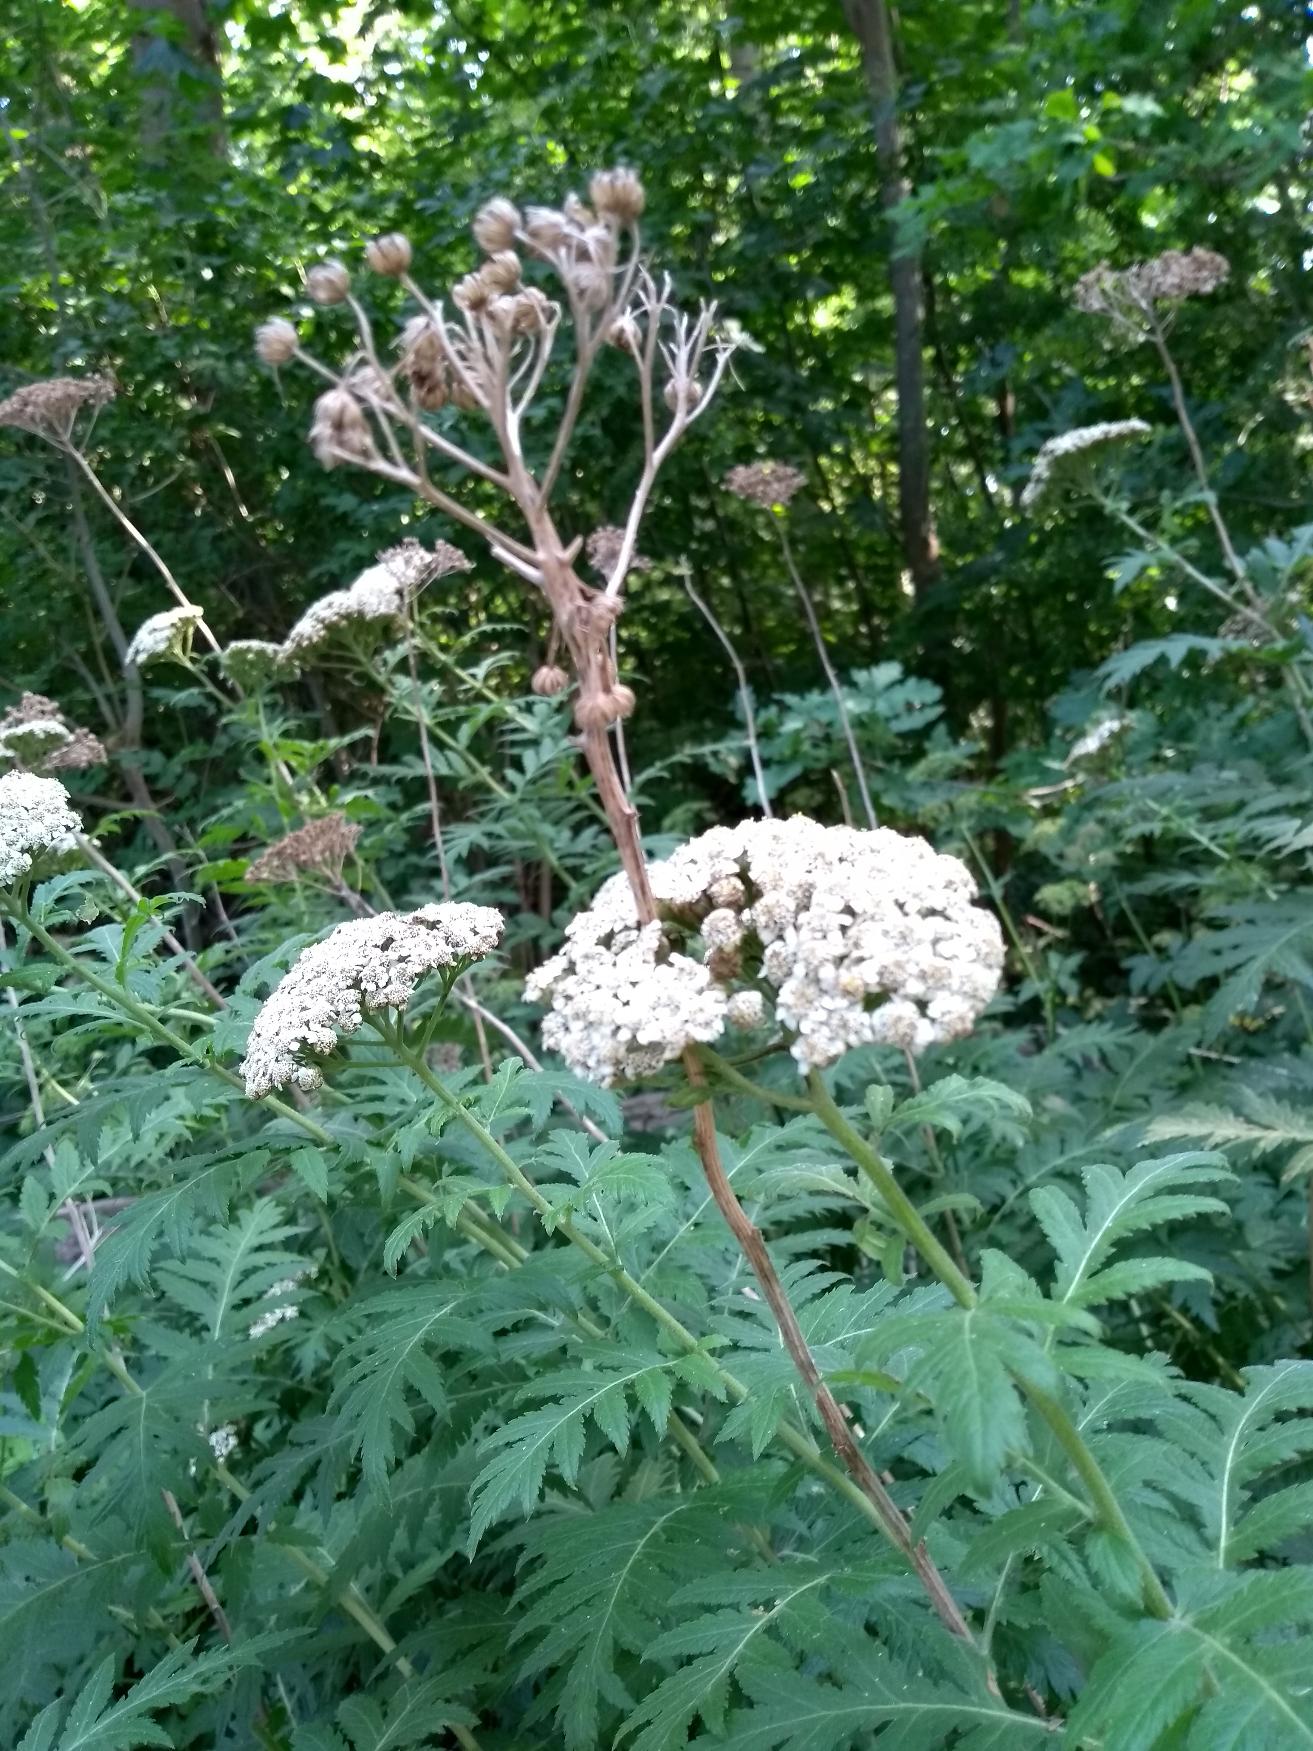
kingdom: Plantae
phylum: Tracheophyta
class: Magnoliopsida
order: Asterales
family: Asteraceae
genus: Tanacetum
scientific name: Tanacetum macrophyllum
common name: Røllike-matrem
